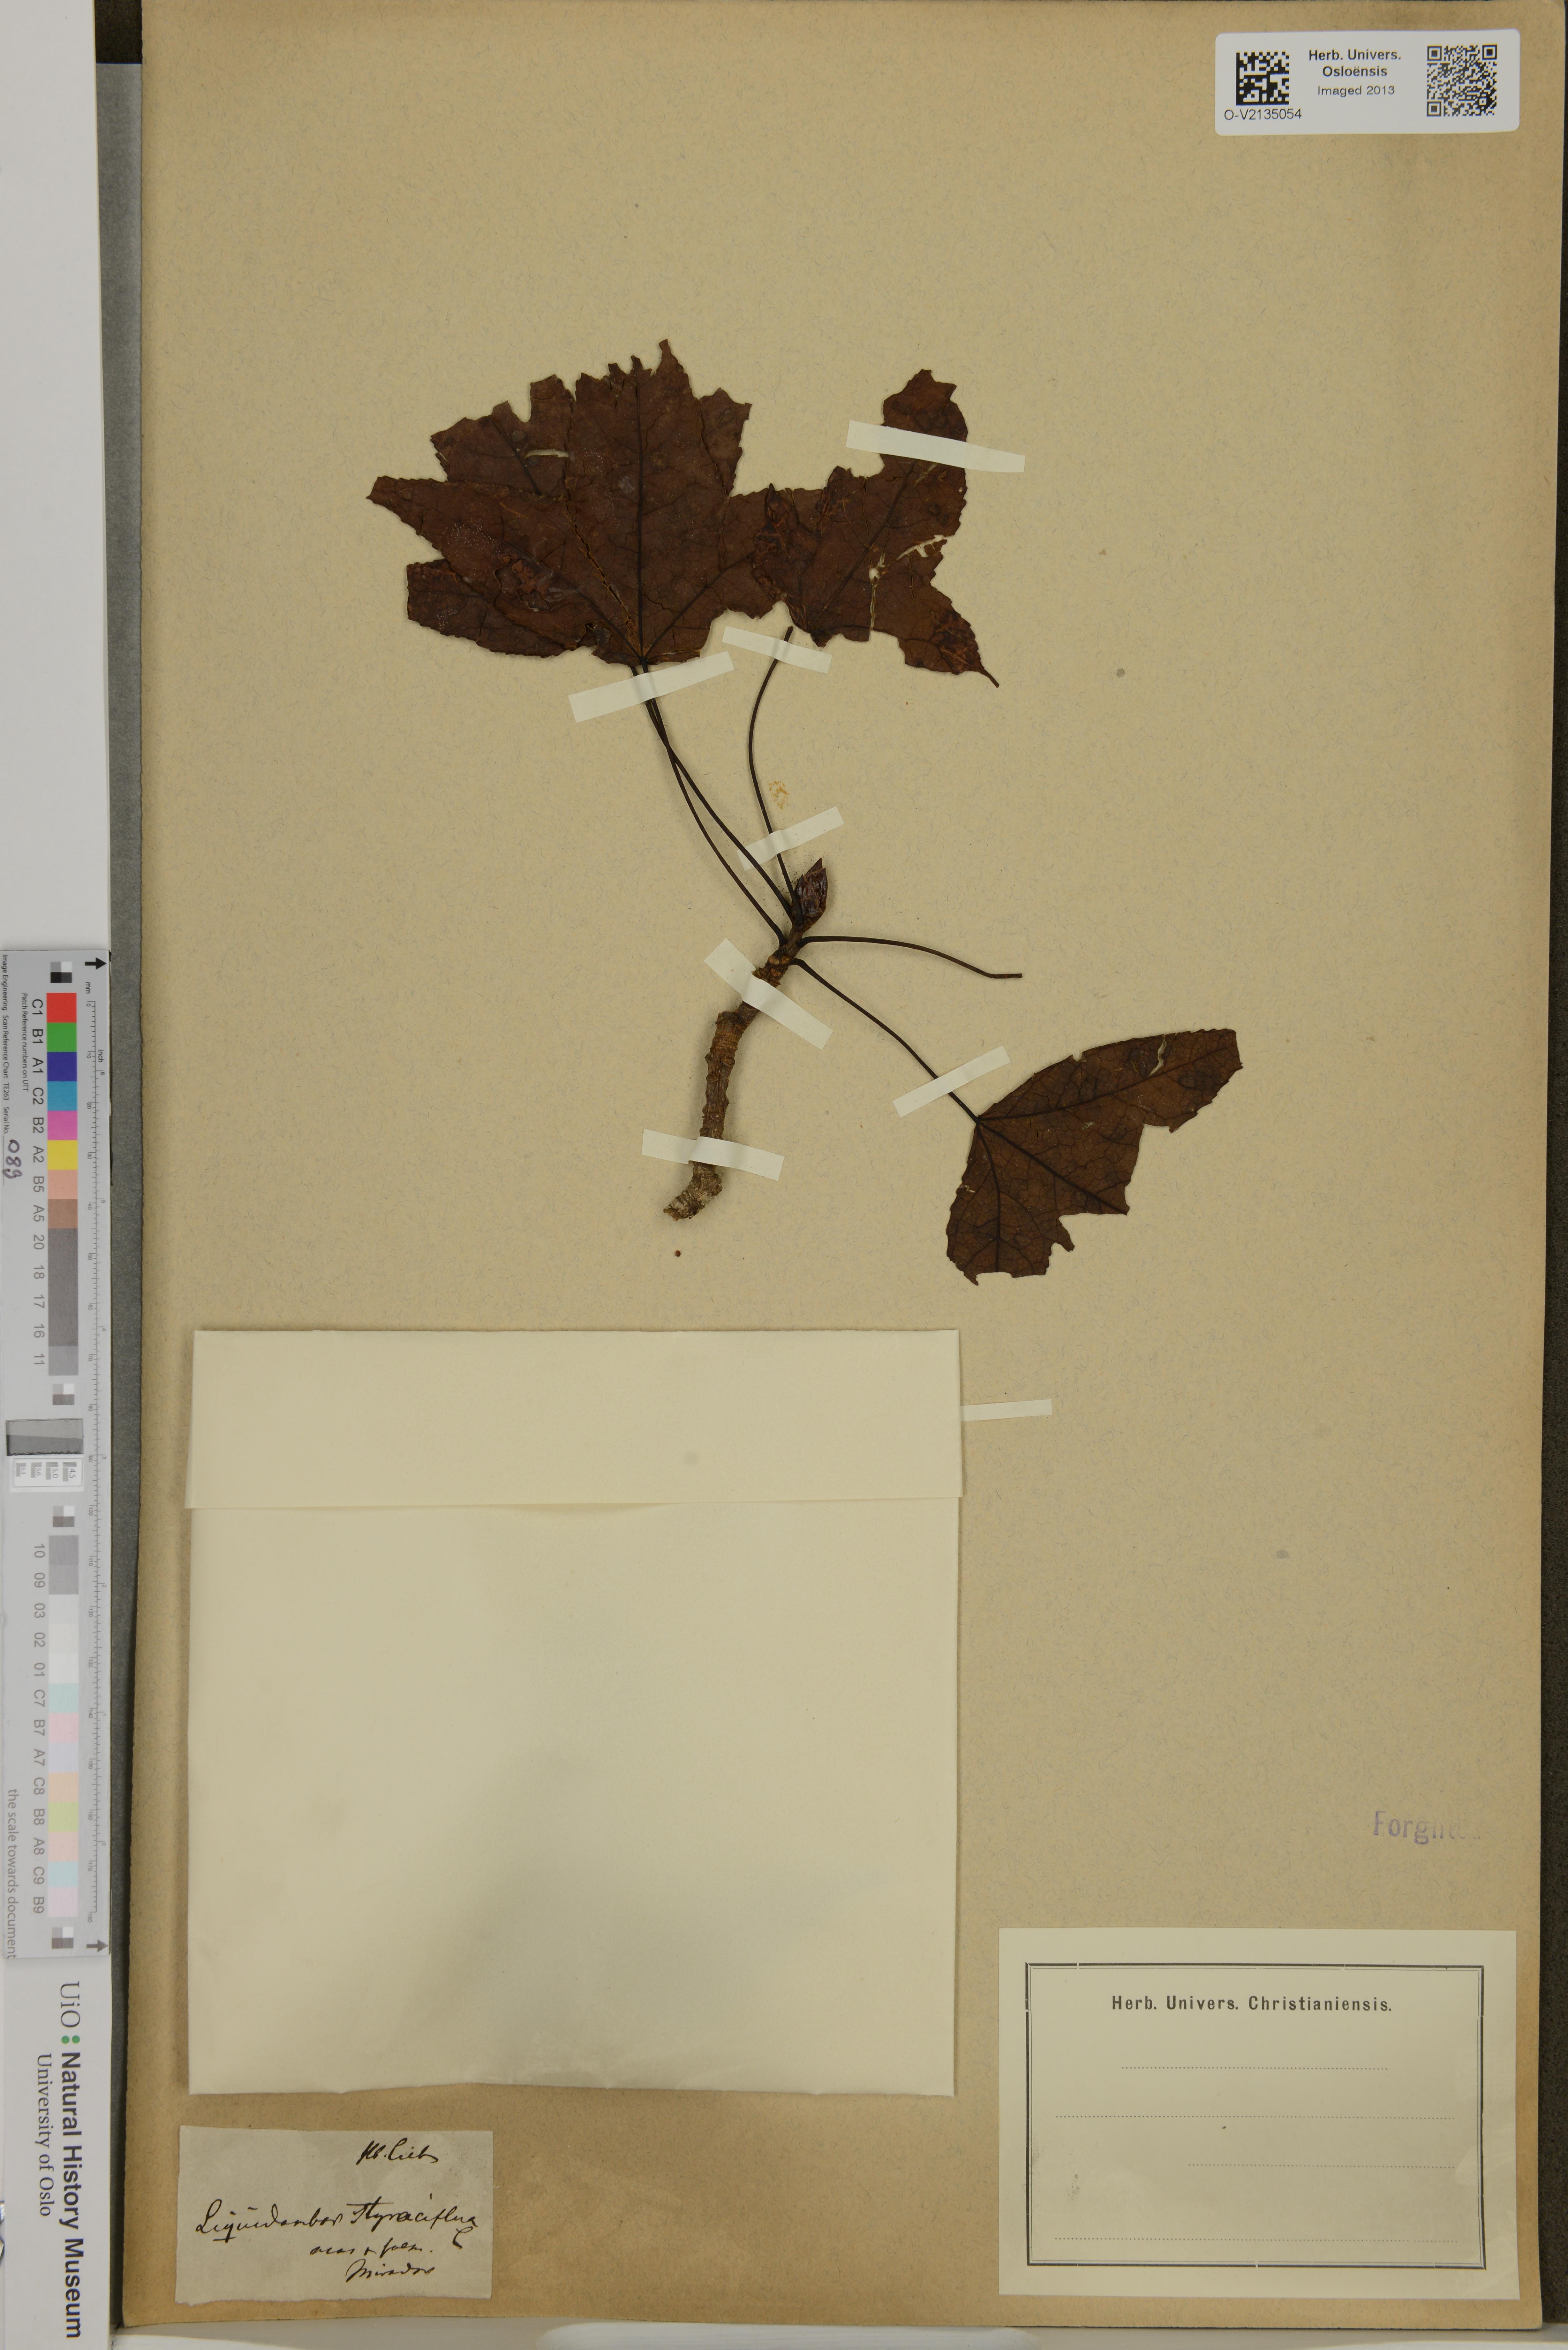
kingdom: Plantae
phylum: Tracheophyta
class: Magnoliopsida
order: Saxifragales
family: Altingiaceae
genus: Liquidambar
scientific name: Liquidambar styraciflua
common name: Sweet gum
